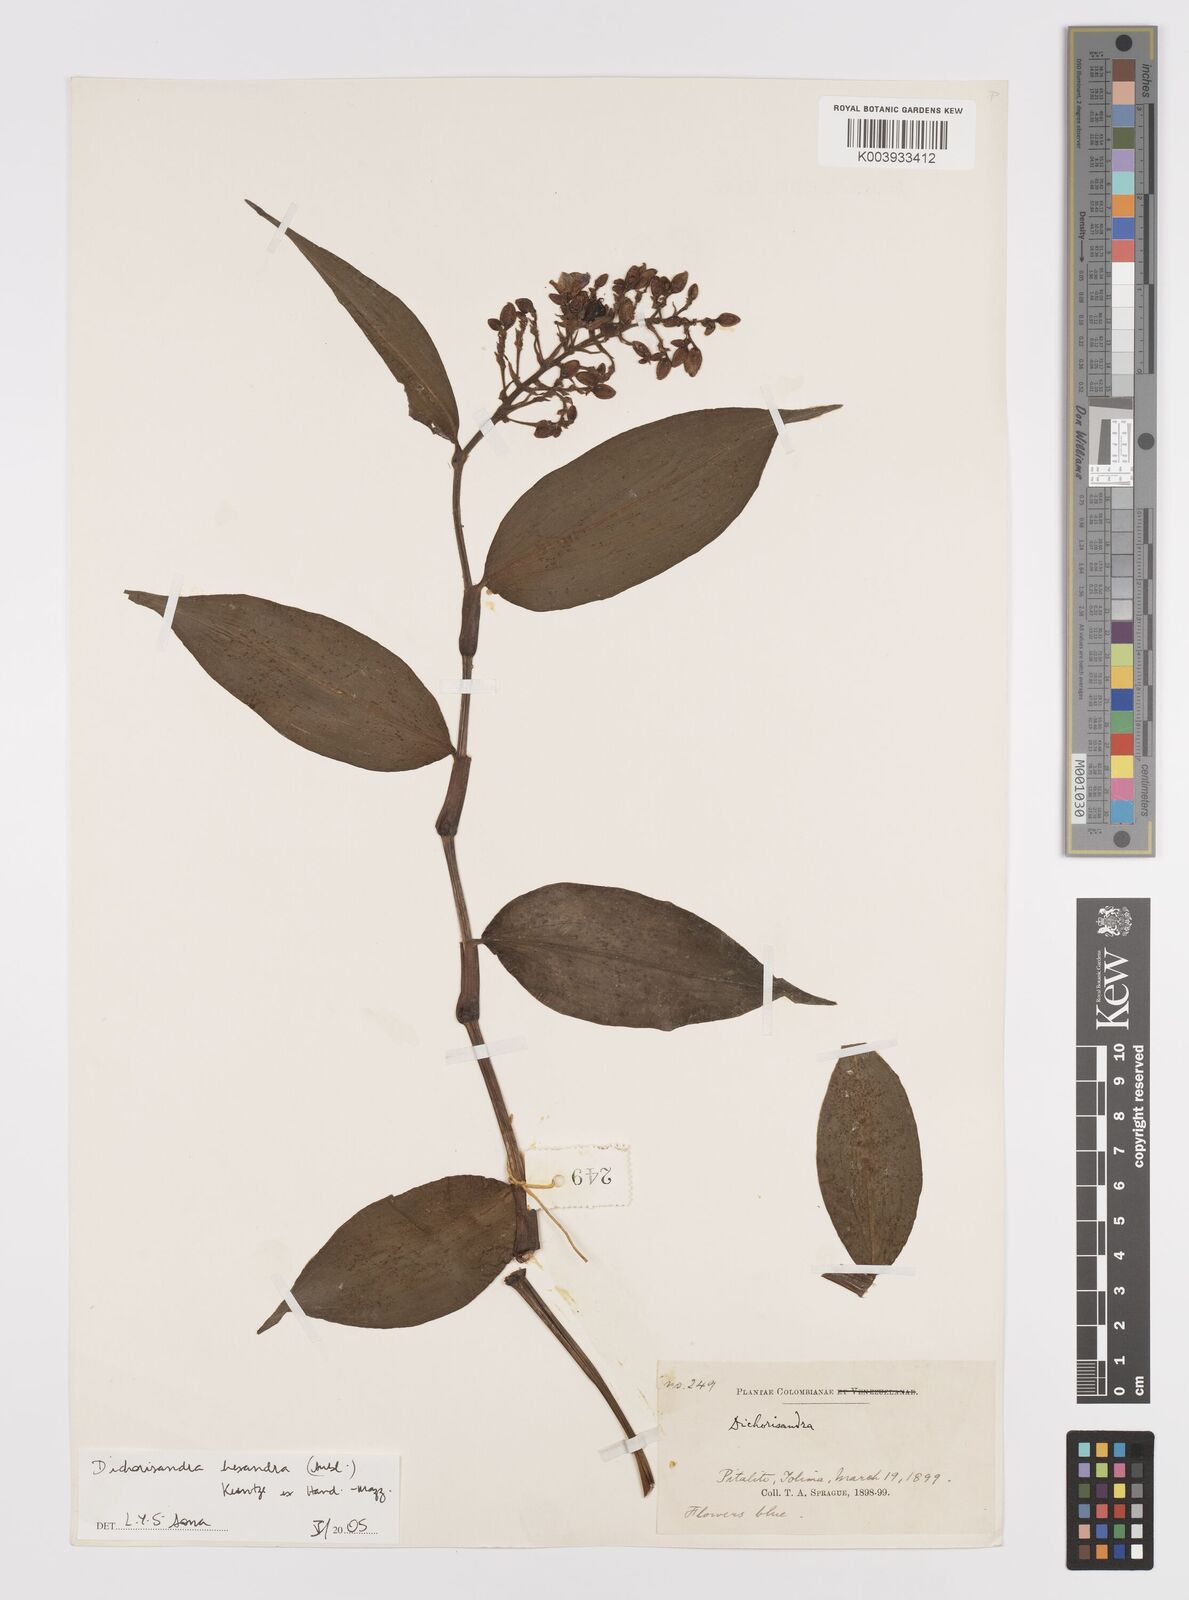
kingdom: Plantae
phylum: Tracheophyta
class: Liliopsida
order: Commelinales
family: Commelinaceae
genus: Dichorisandra
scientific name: Dichorisandra hexandra
